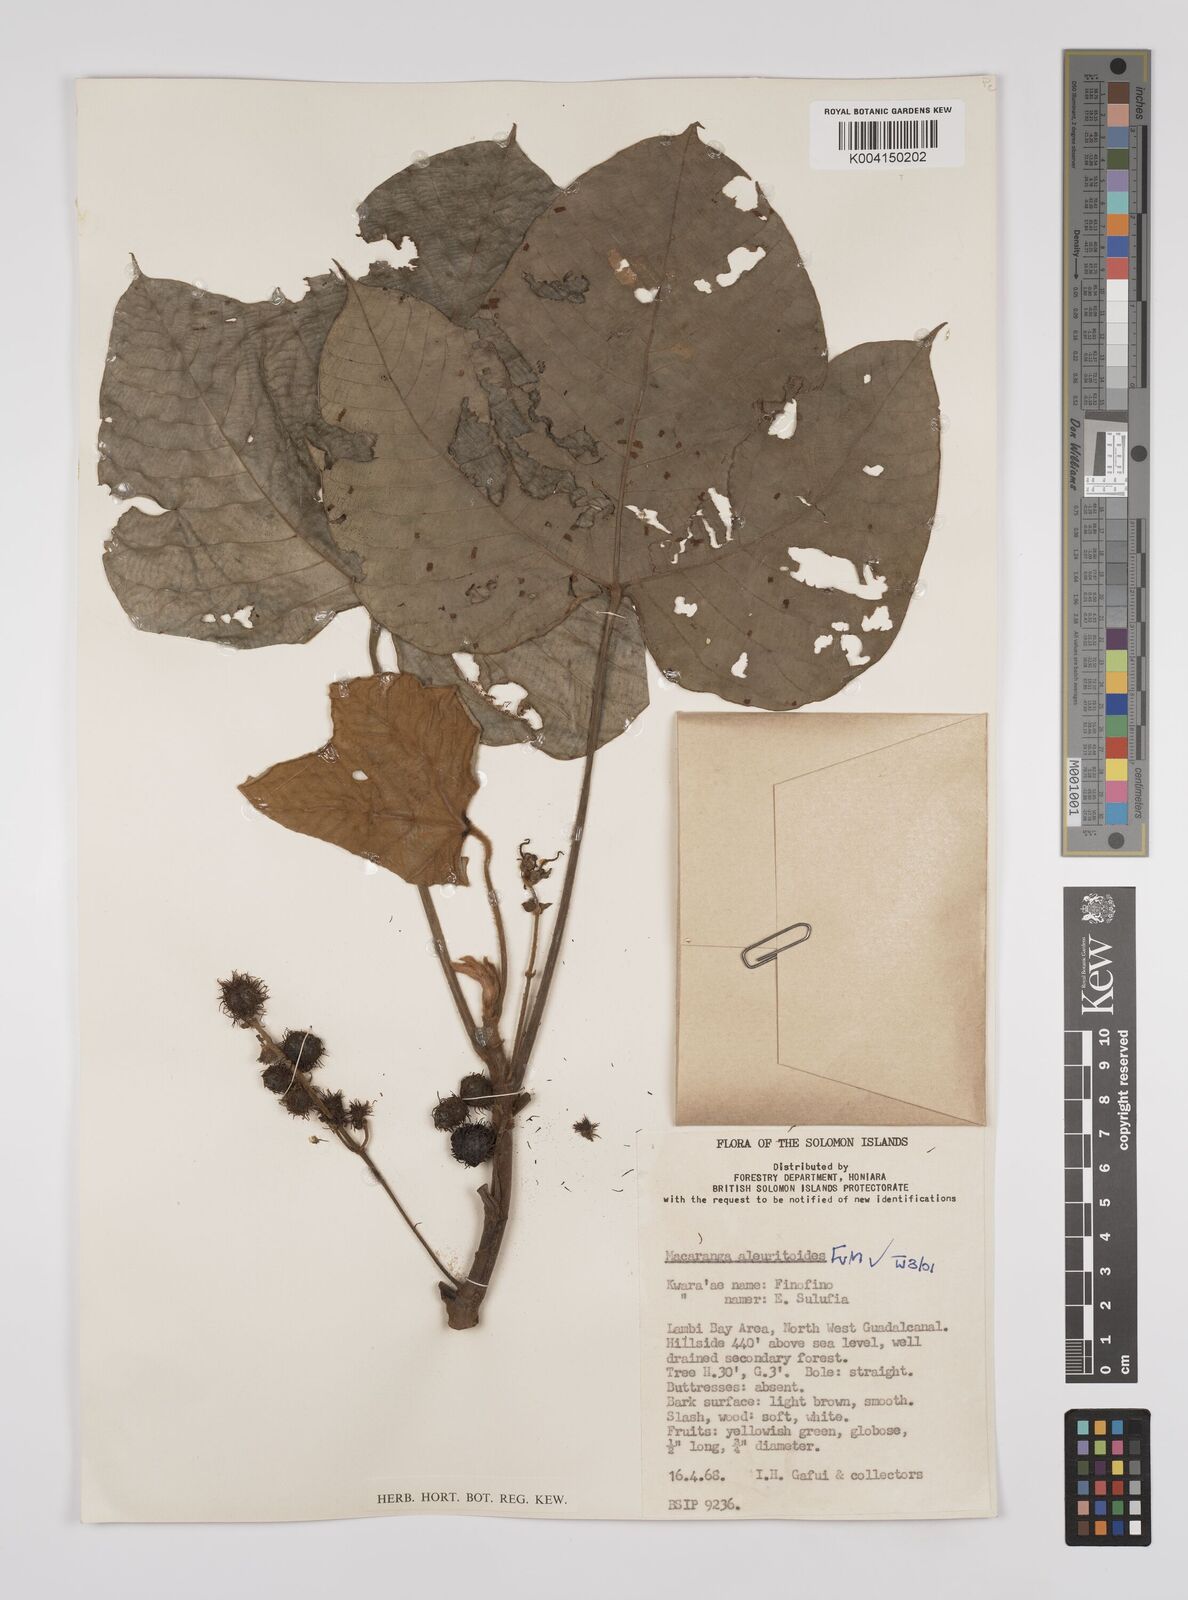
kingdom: Plantae
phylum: Tracheophyta
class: Magnoliopsida
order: Malpighiales
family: Euphorbiaceae
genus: Macaranga
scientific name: Macaranga aleuritoides
